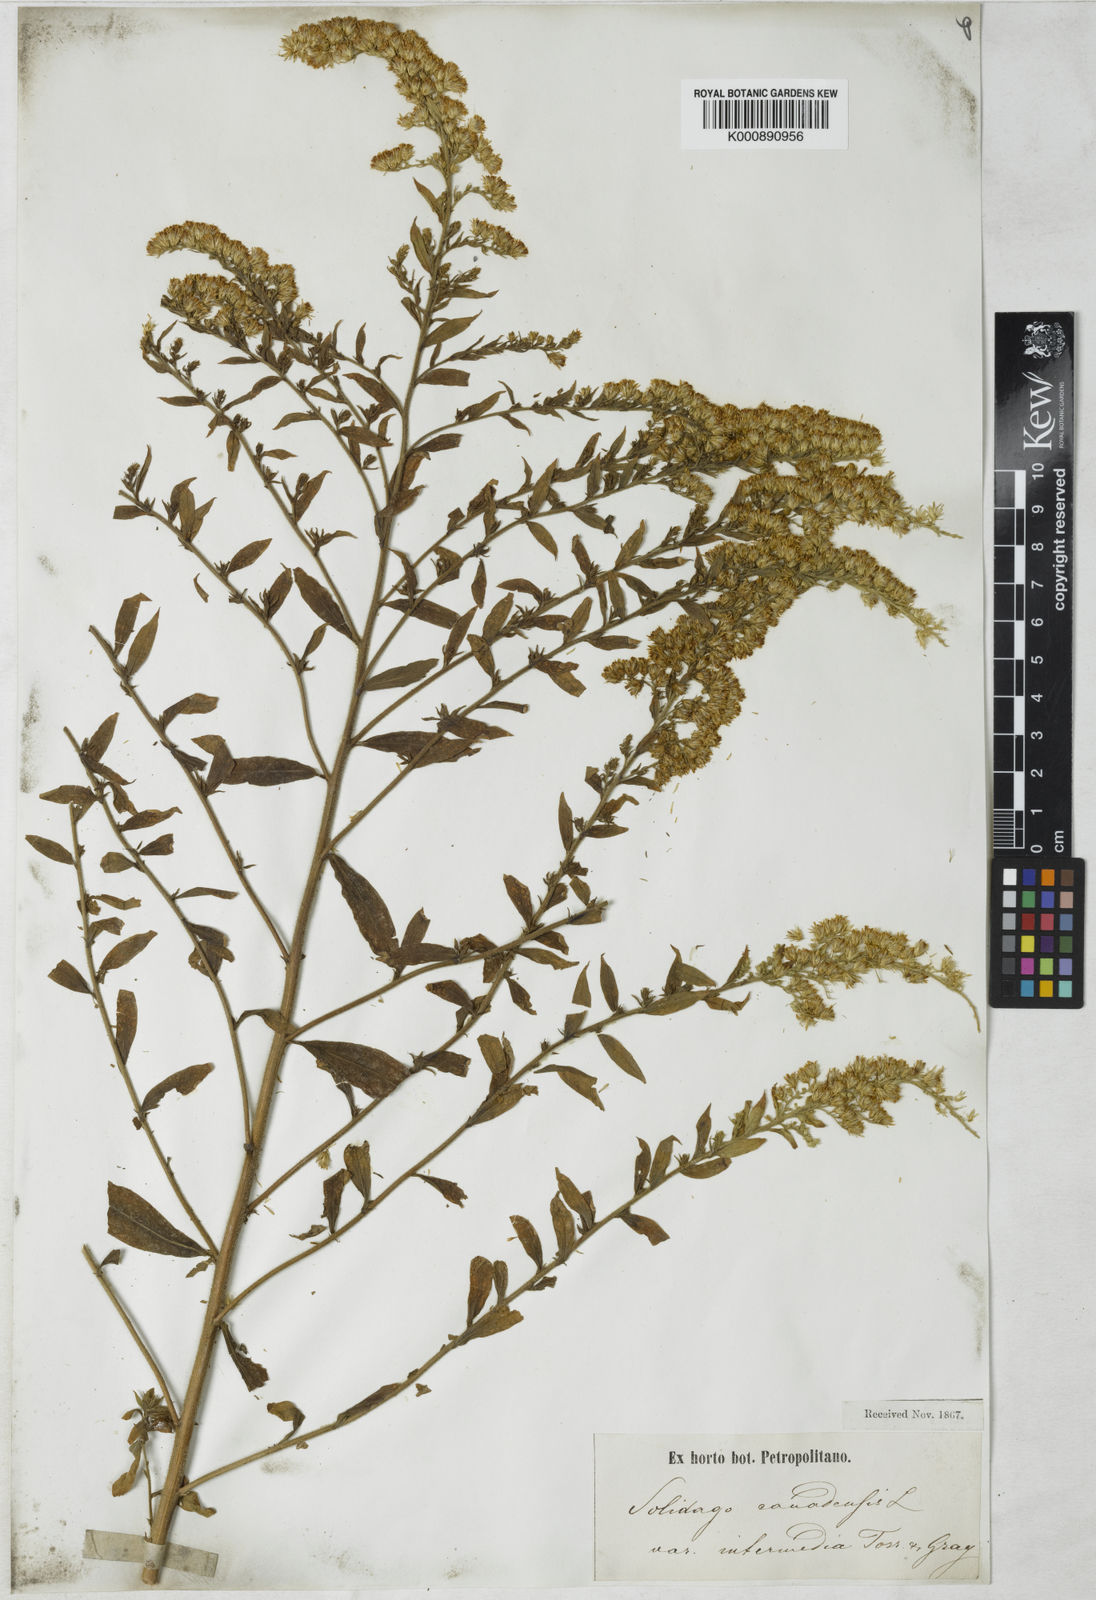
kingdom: Plantae
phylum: Tracheophyta
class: Magnoliopsida
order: Asterales
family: Asteraceae
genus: Solidago
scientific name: Solidago canadensis
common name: Canada goldenrod
